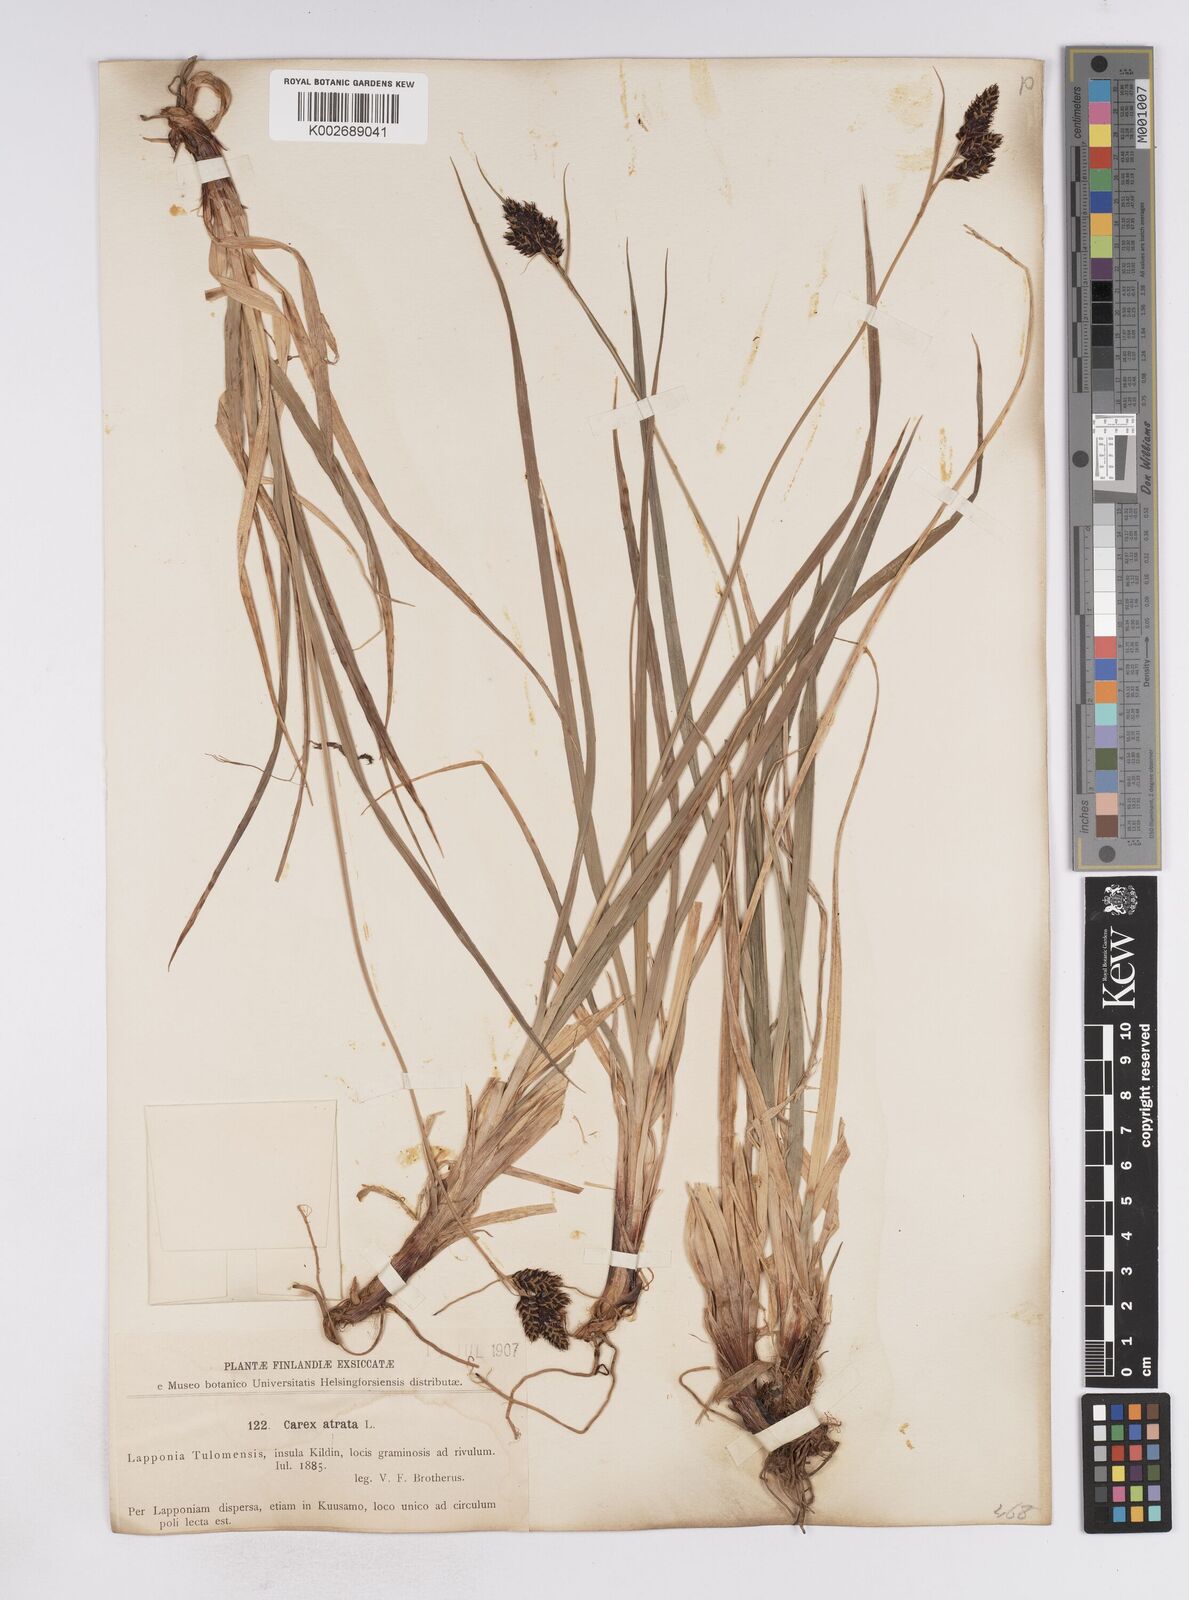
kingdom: Plantae
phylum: Tracheophyta
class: Liliopsida
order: Poales
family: Cyperaceae
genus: Carex
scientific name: Carex atrata
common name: Black alpine sedge
